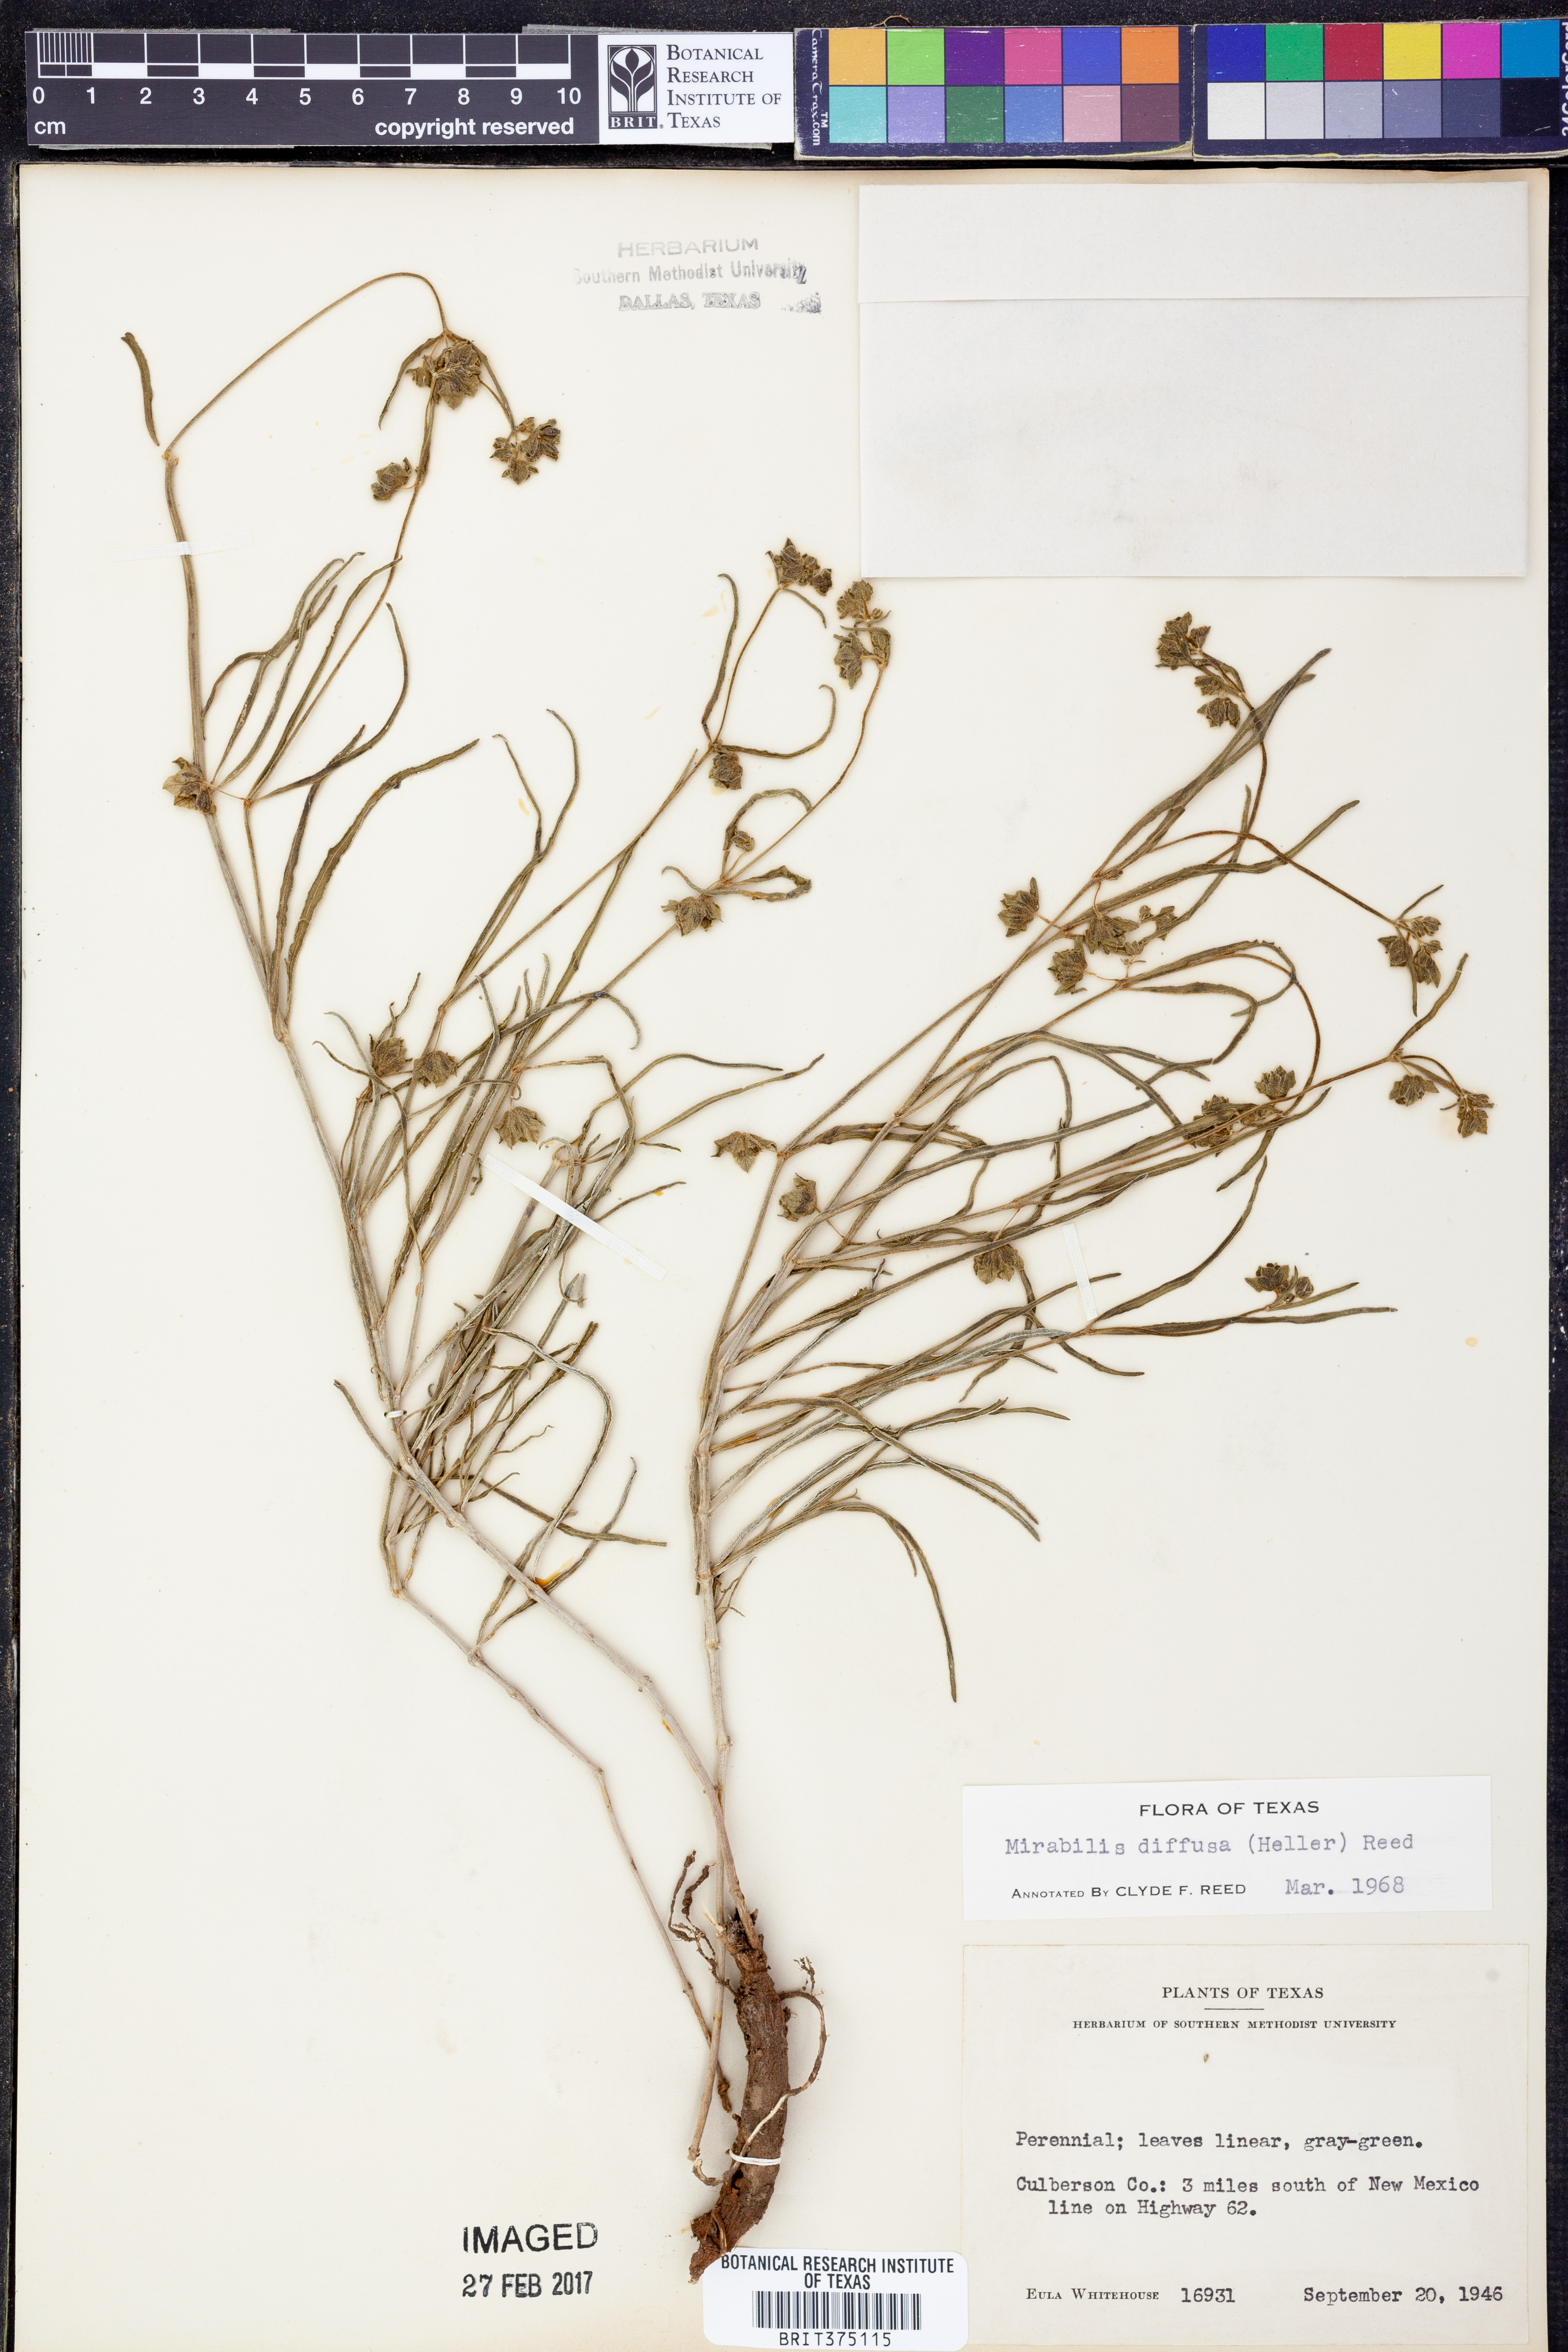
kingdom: Plantae
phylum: Tracheophyta
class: Magnoliopsida
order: Caryophyllales
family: Nyctaginaceae
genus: Mirabilis
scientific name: Mirabilis linearis
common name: Linear-leaved four-o'clock
